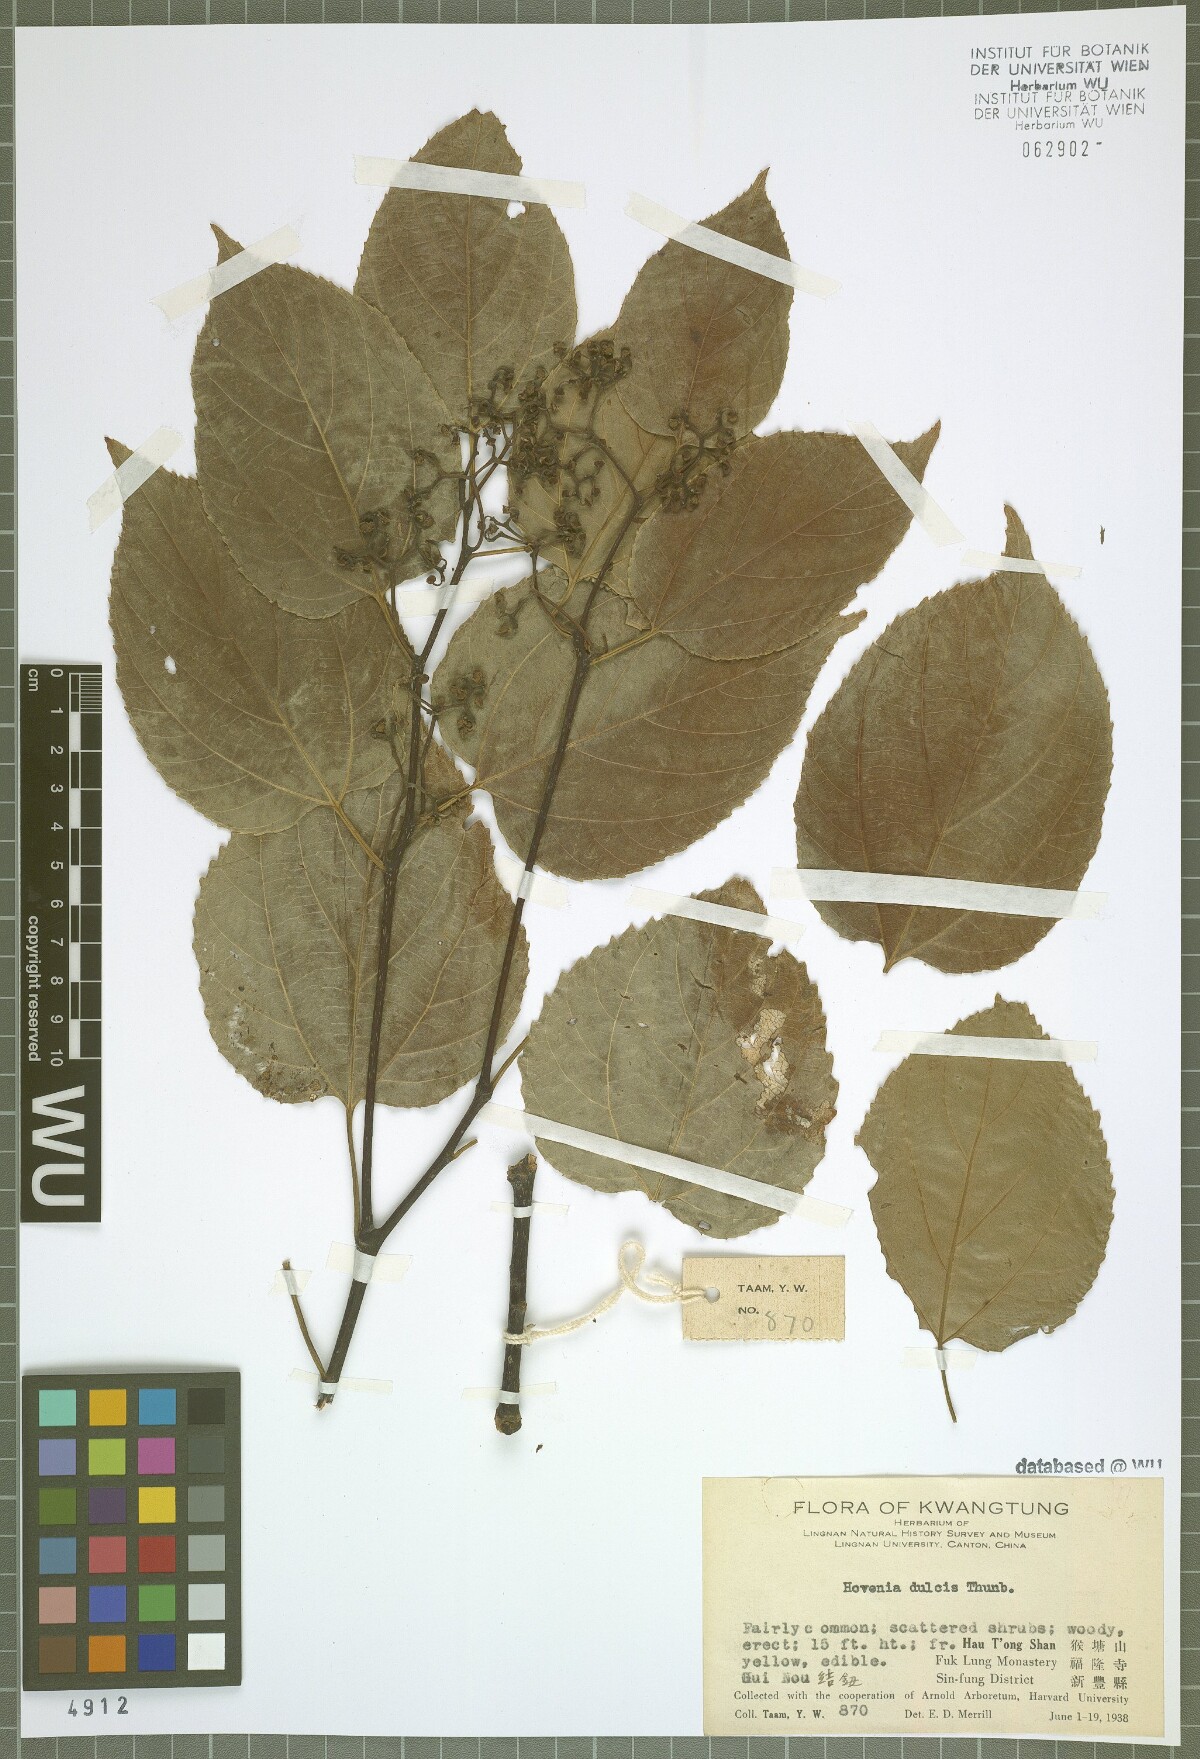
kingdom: Plantae
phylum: Tracheophyta
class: Magnoliopsida
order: Rosales
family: Rhamnaceae
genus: Hovenia
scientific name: Hovenia dulcis
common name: Japanese raisintree
